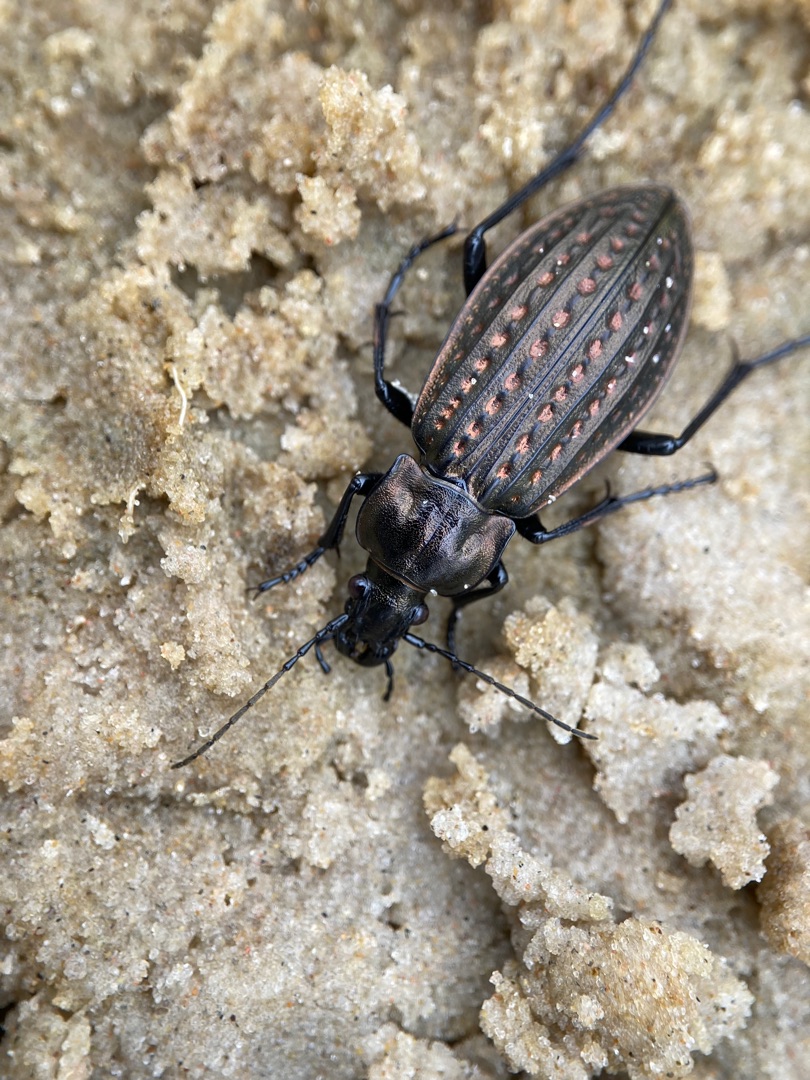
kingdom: Animalia
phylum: Arthropoda
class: Insecta
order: Coleoptera
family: Carabidae
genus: Carabus
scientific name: Carabus clatratus
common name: Dyndløber
